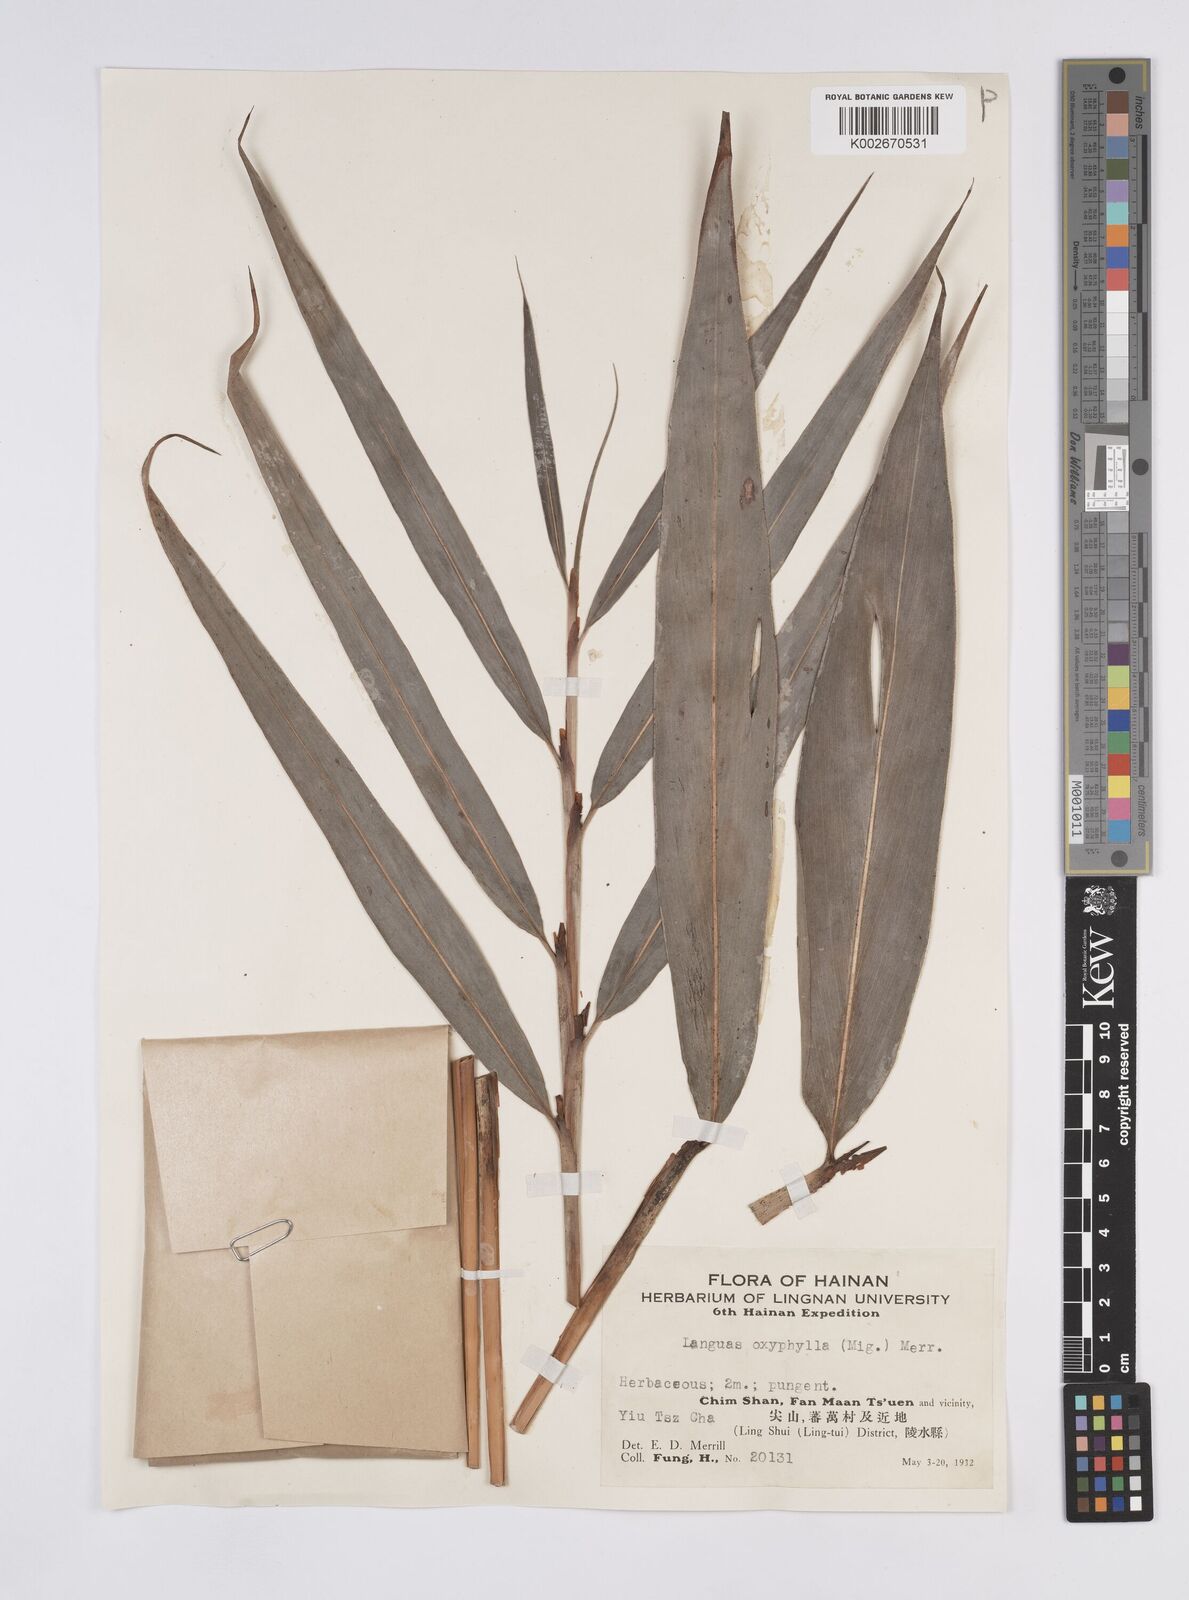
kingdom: Plantae
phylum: Tracheophyta
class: Liliopsida
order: Zingiberales
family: Zingiberaceae
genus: Alpinia
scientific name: Alpinia oxyphylla
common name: Sharp-leaf galangal
